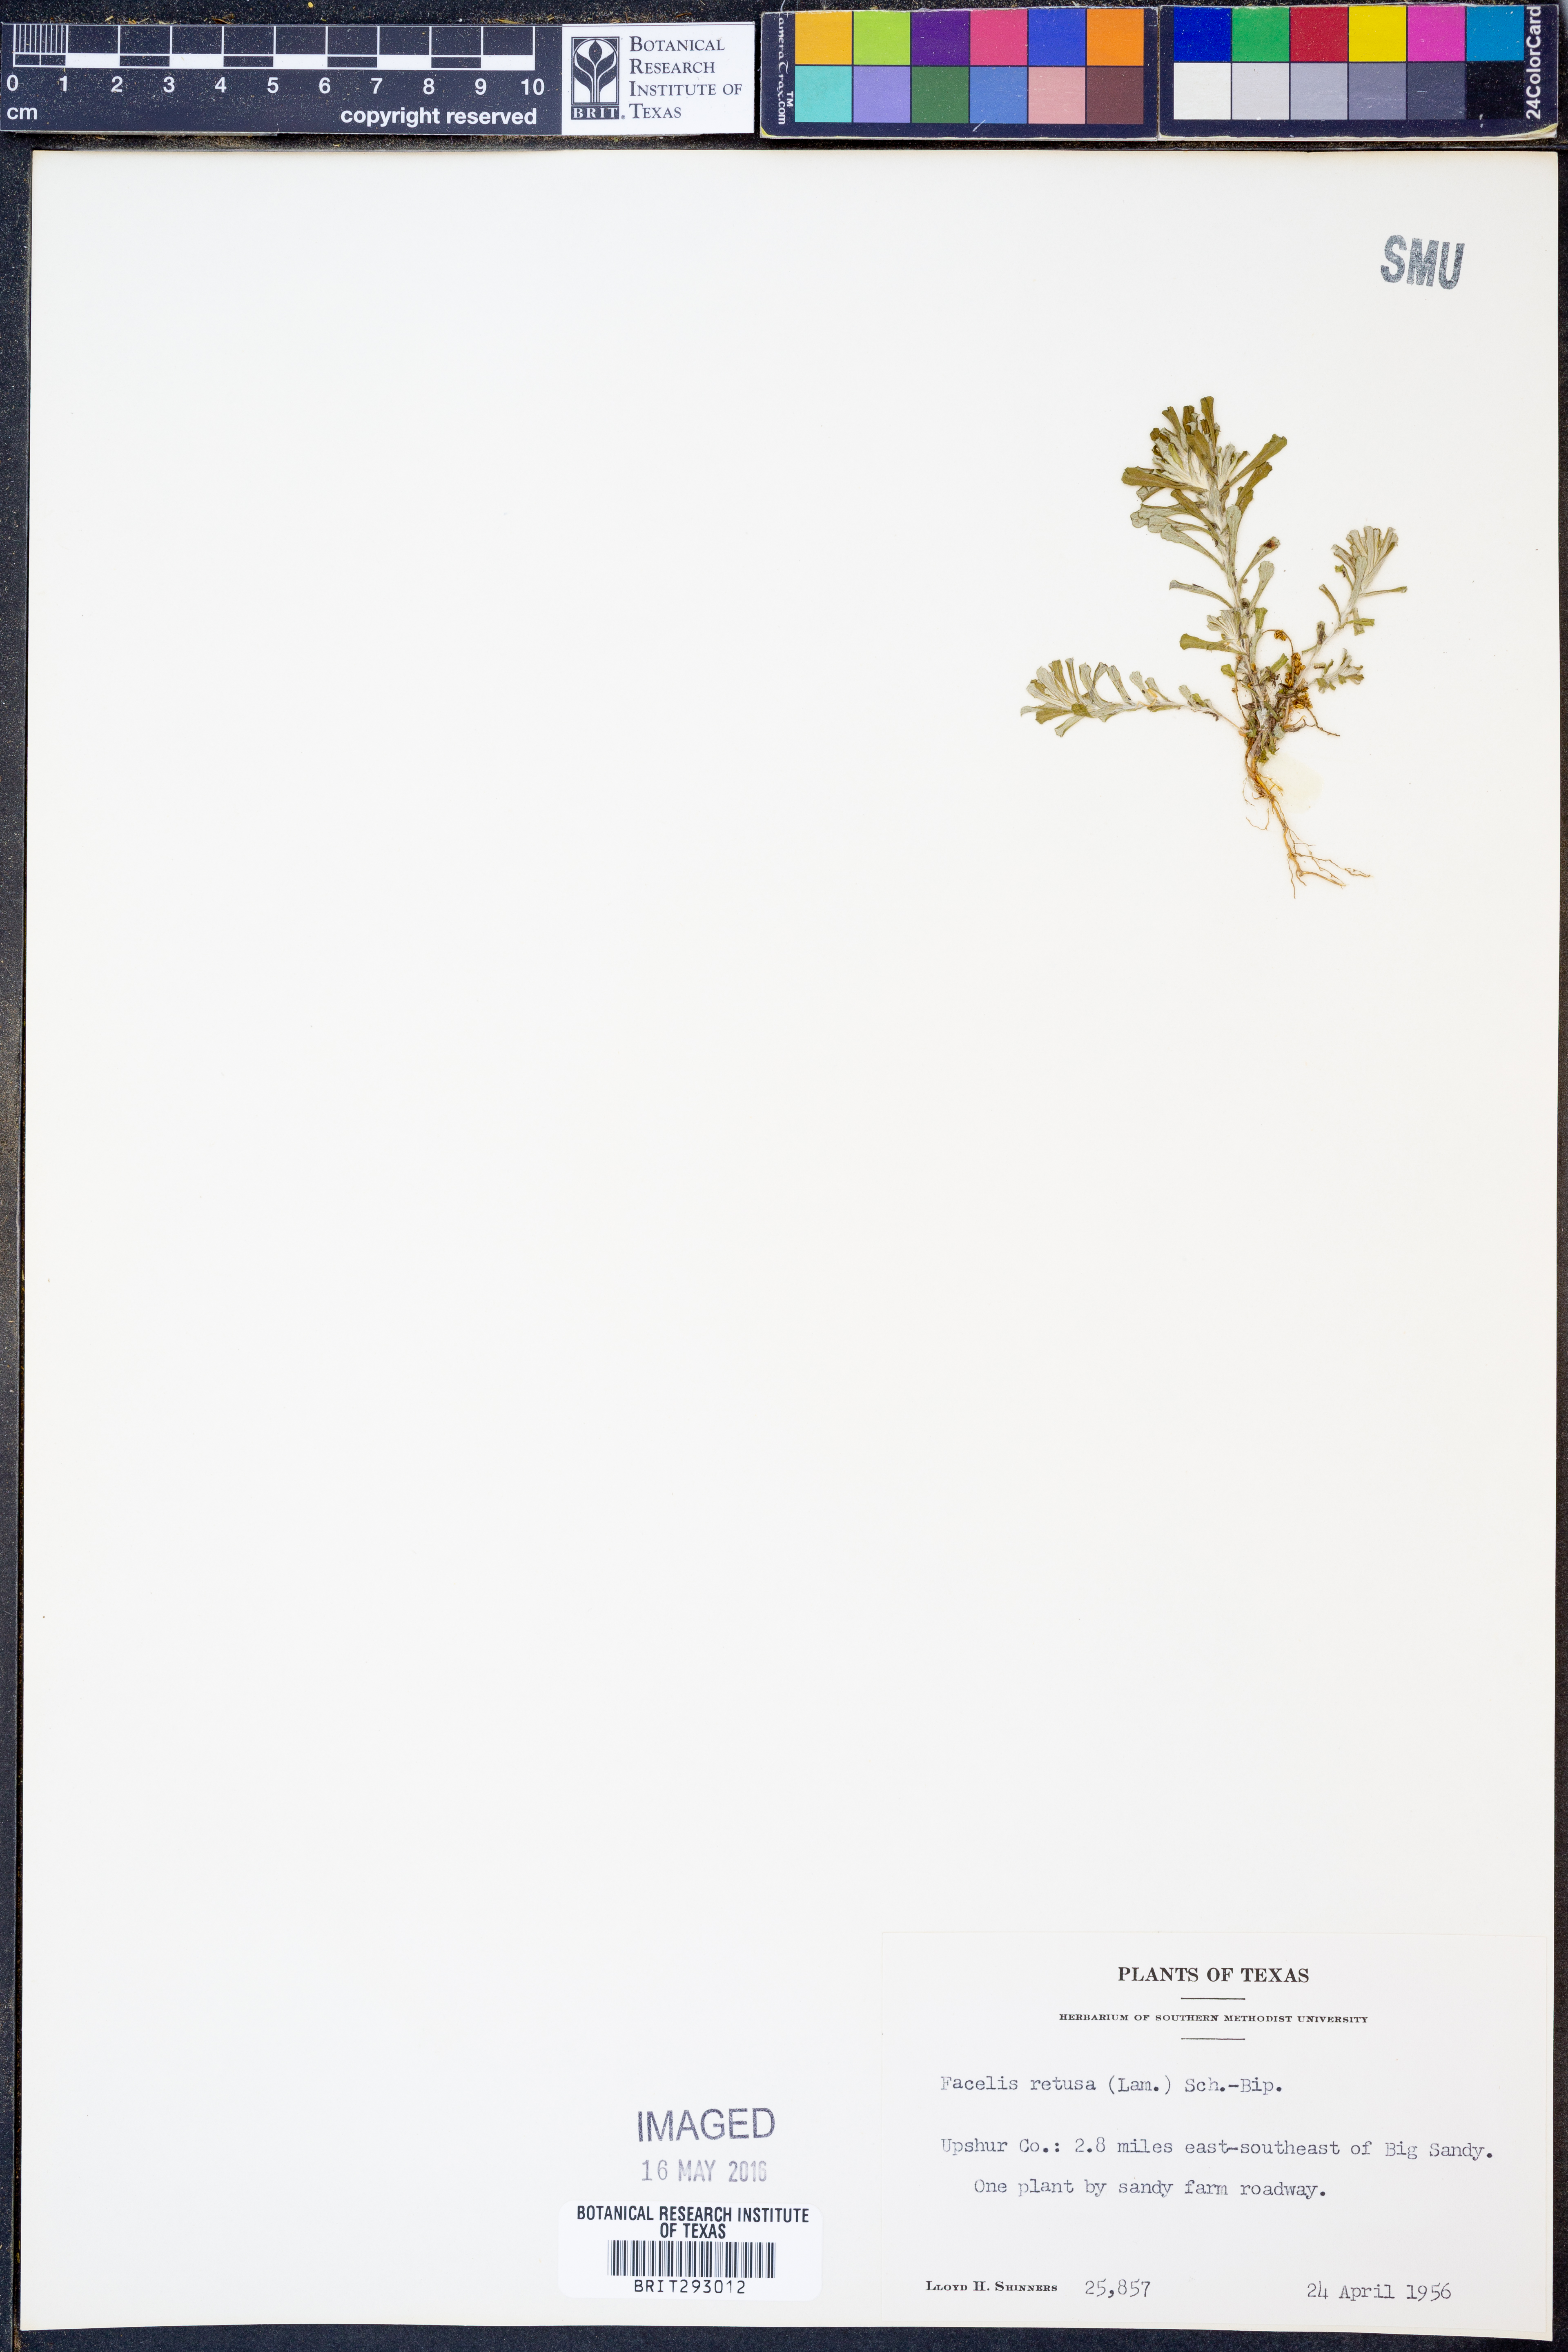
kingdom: Plantae
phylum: Tracheophyta
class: Magnoliopsida
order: Asterales
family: Asteraceae
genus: Facelis
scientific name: Facelis retusa
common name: Annual trampweed
